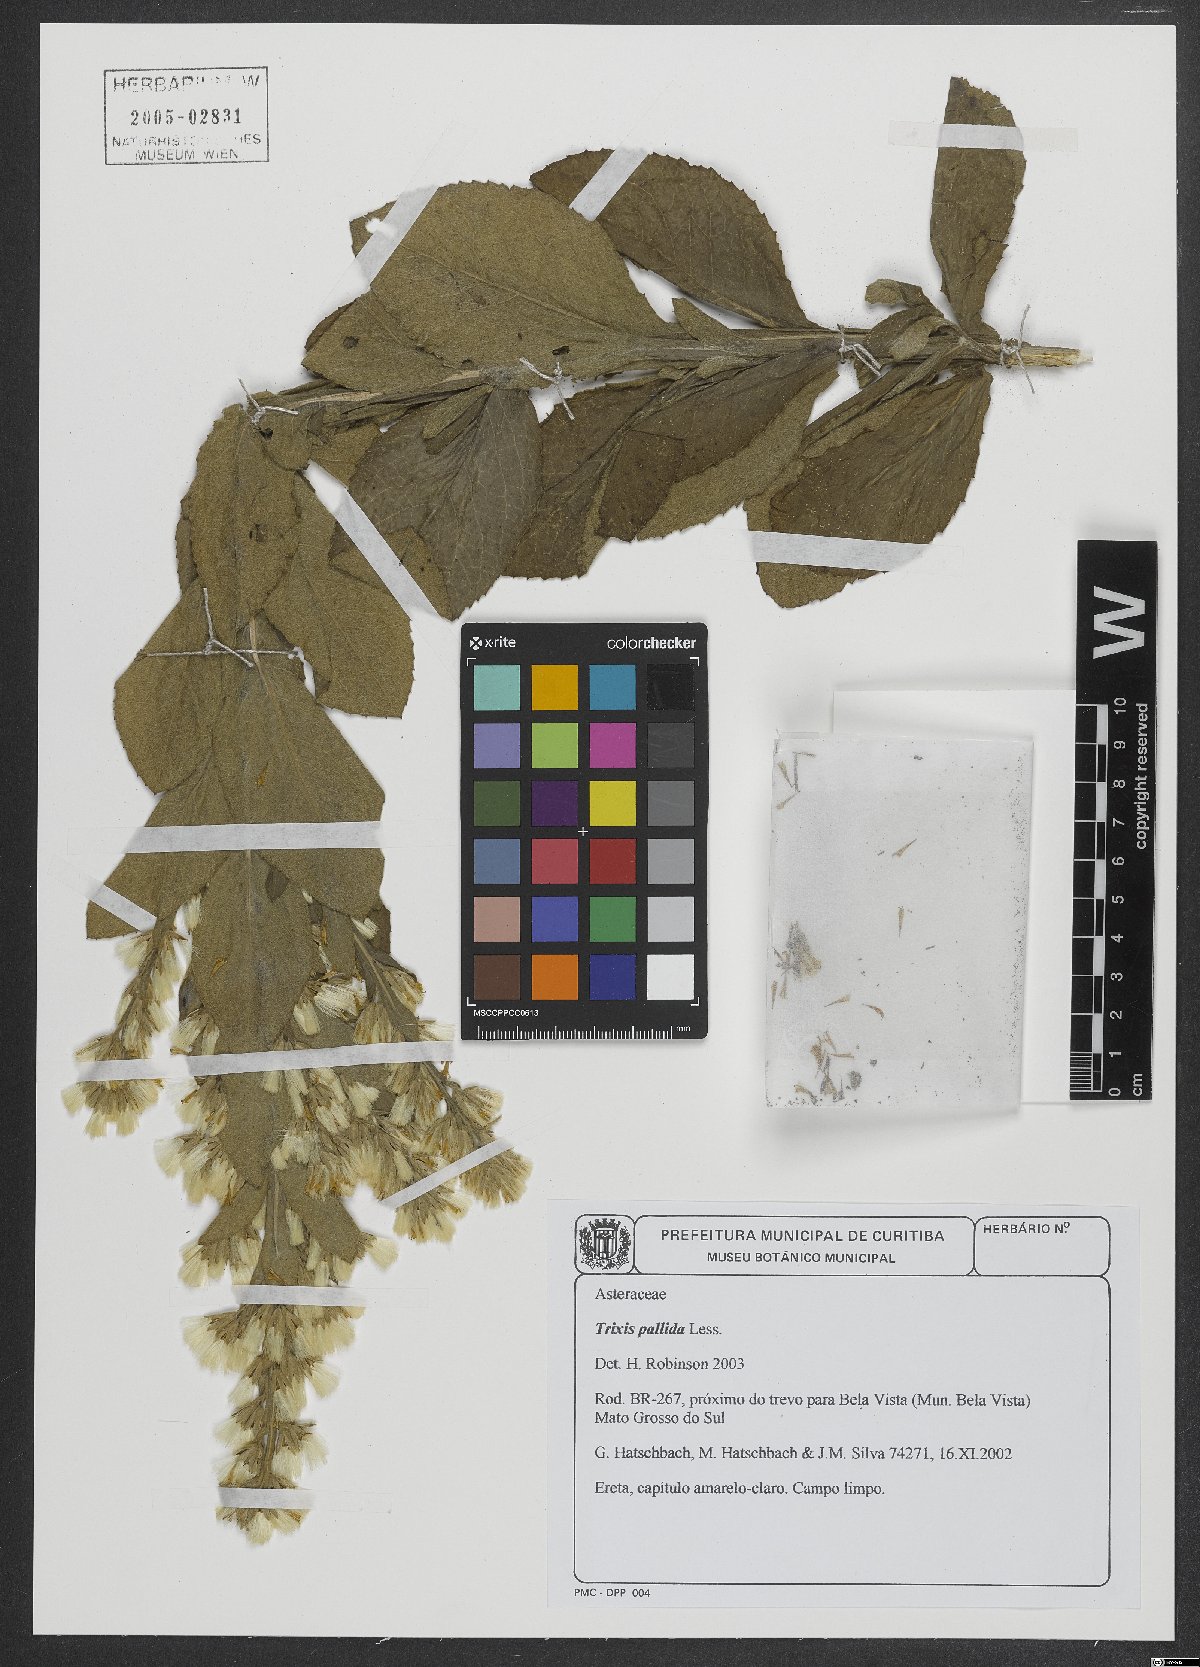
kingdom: Plantae
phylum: Tracheophyta
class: Magnoliopsida
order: Asterales
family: Asteraceae
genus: Trixis
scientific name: Trixis pallida
